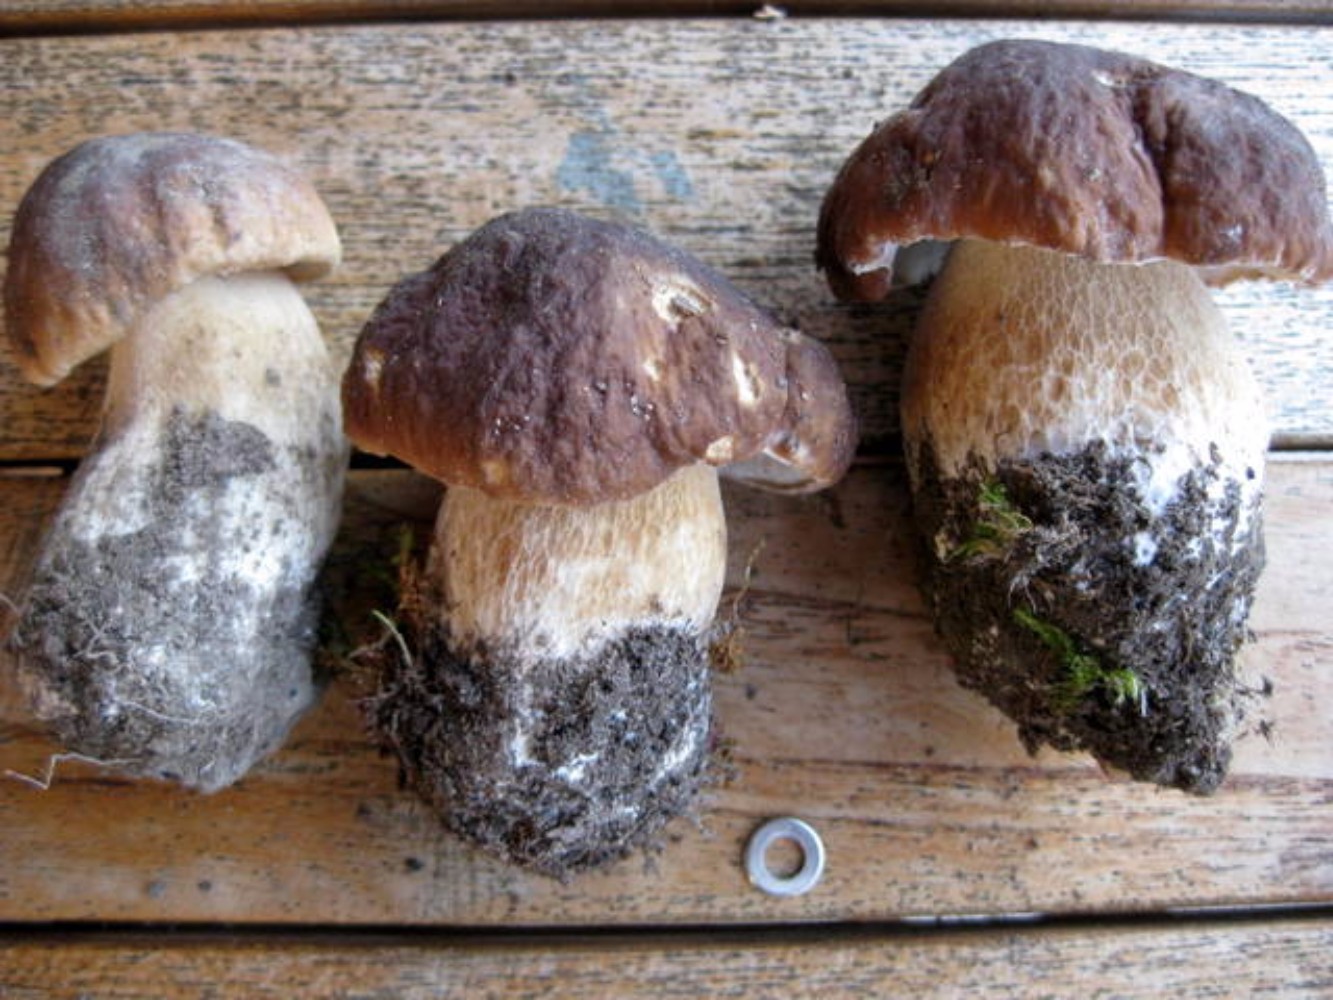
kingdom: Fungi
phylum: Basidiomycota
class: Agaricomycetes
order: Boletales
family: Boletaceae
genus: Boletus
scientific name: Boletus edulis
